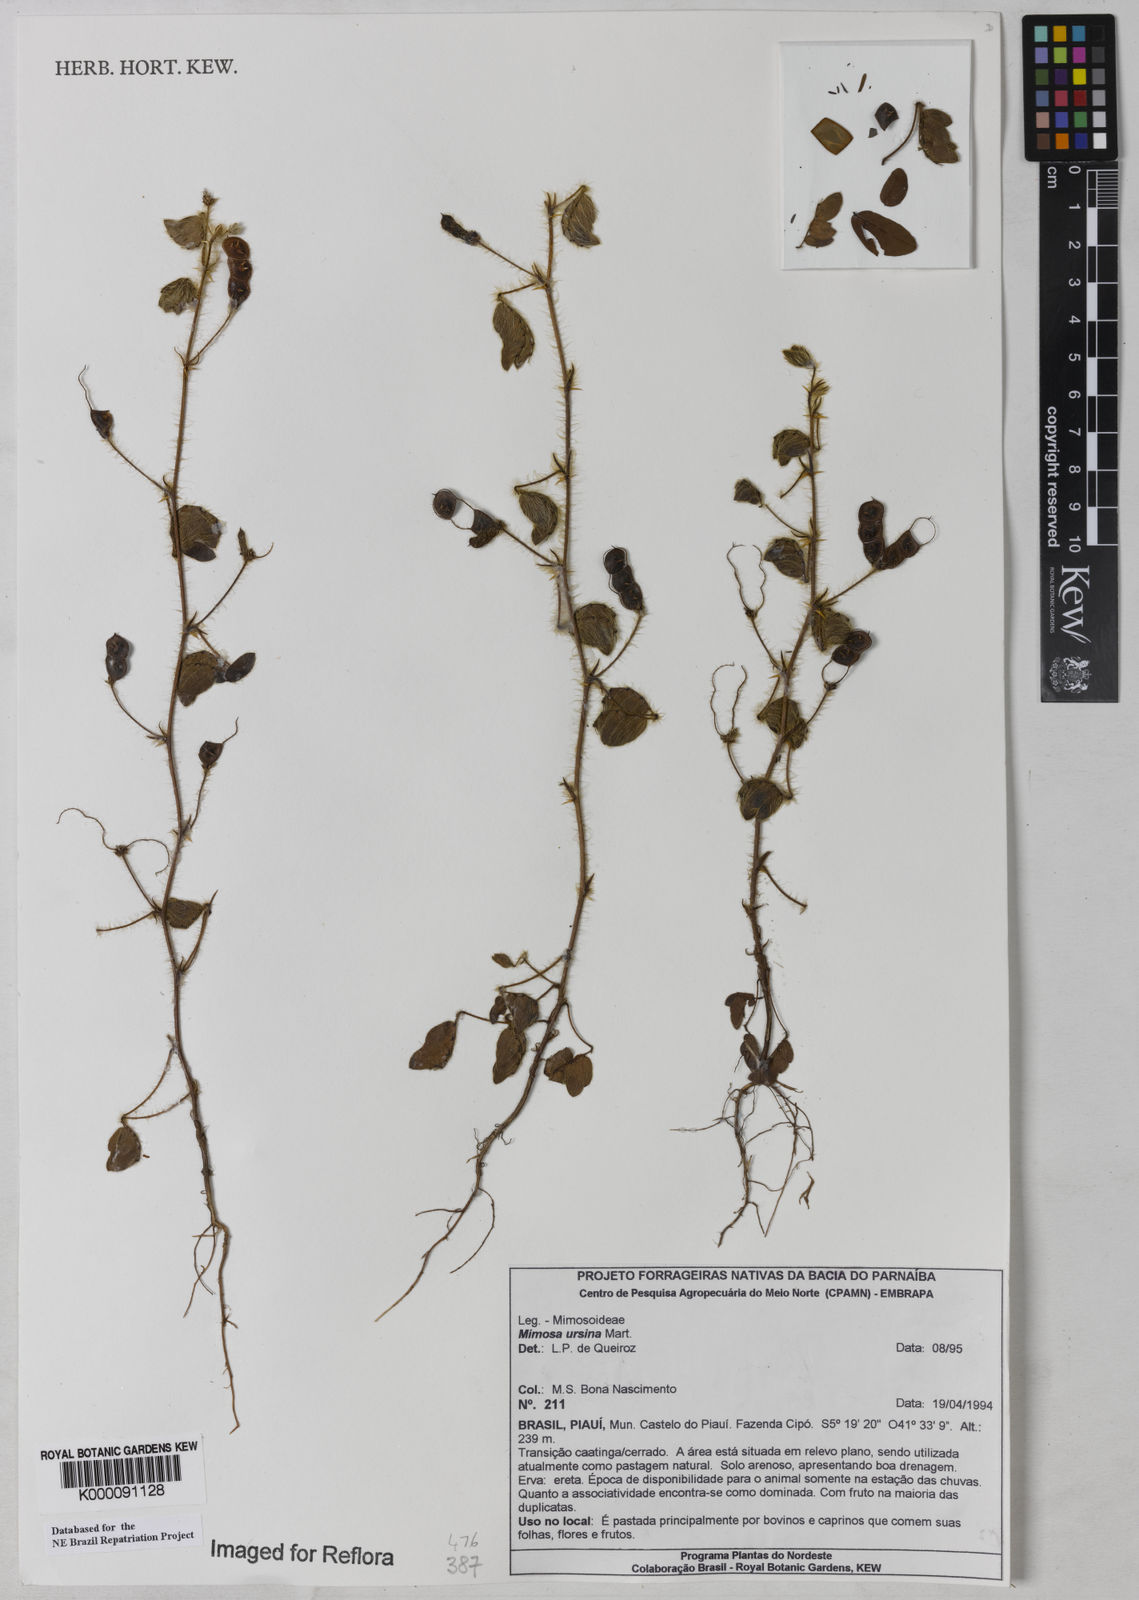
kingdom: Plantae
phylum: Tracheophyta
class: Magnoliopsida
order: Fabales
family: Fabaceae
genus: Mimosa
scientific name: Mimosa ursina
